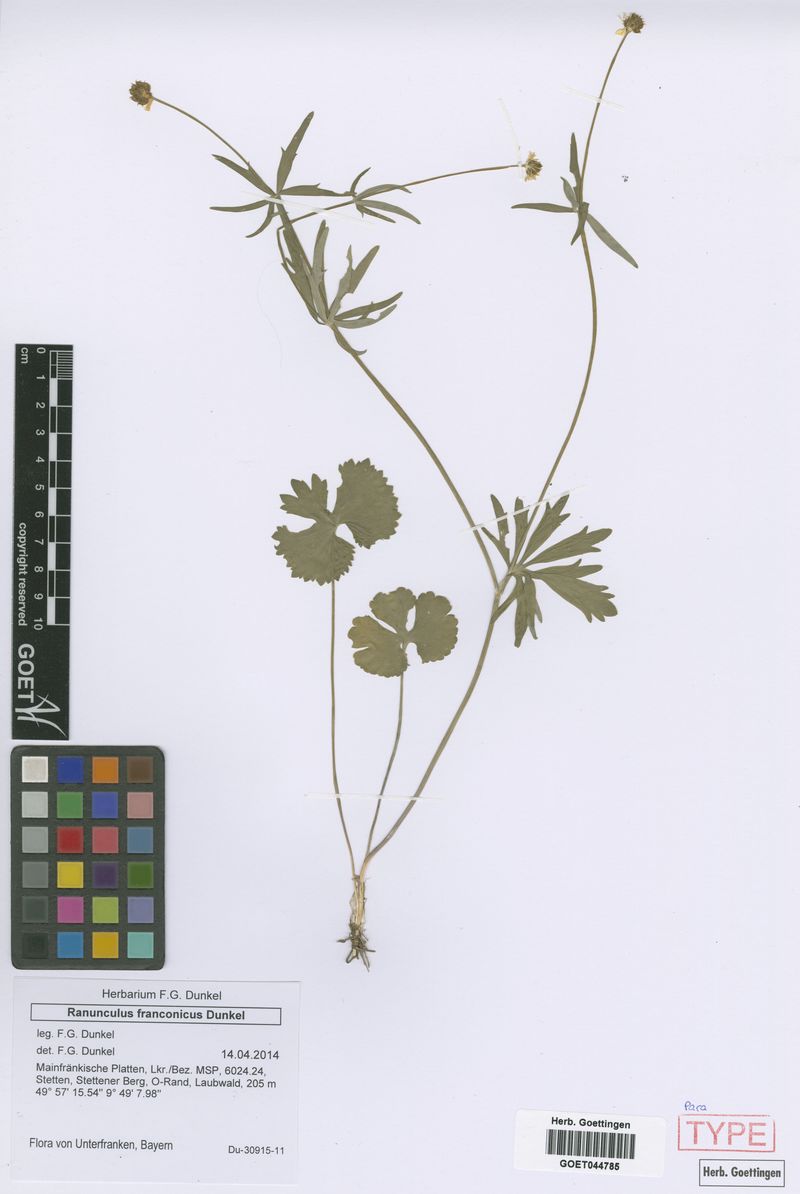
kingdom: Plantae
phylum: Tracheophyta
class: Magnoliopsida
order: Ranunculales
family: Ranunculaceae
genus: Ranunculus
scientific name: Ranunculus franconicus
